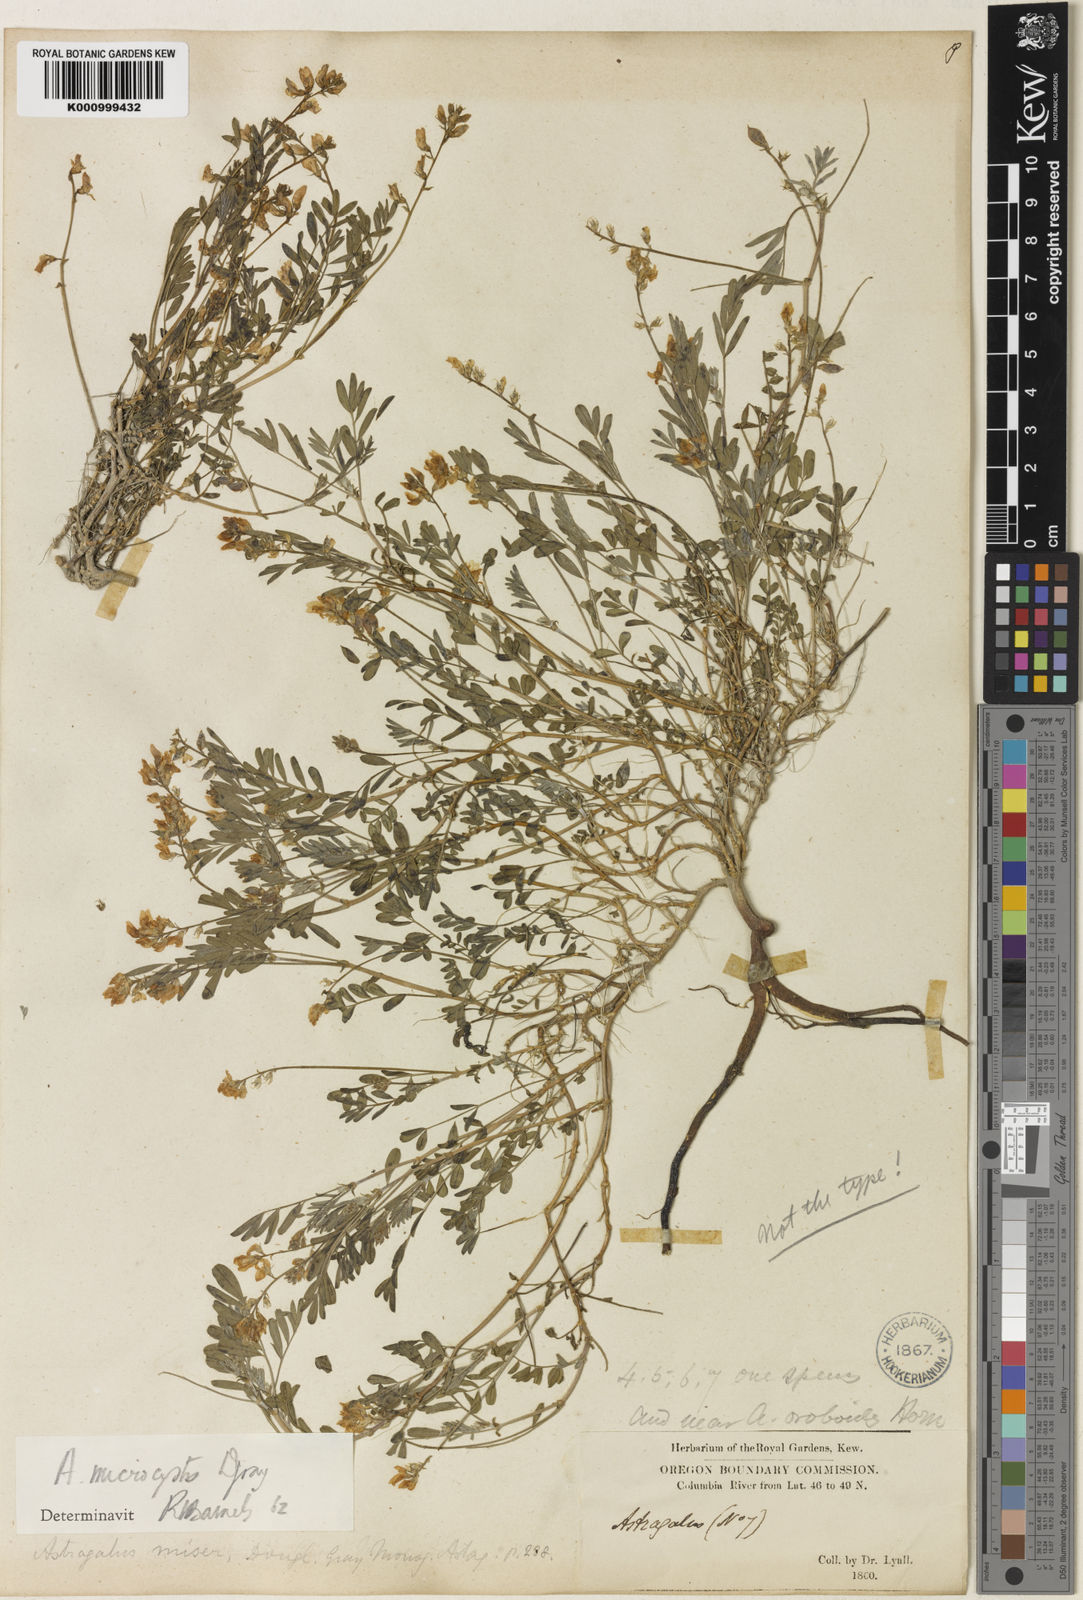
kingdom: Plantae
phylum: Tracheophyta
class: Magnoliopsida
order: Fabales
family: Fabaceae
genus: Astragalus
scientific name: Astragalus
